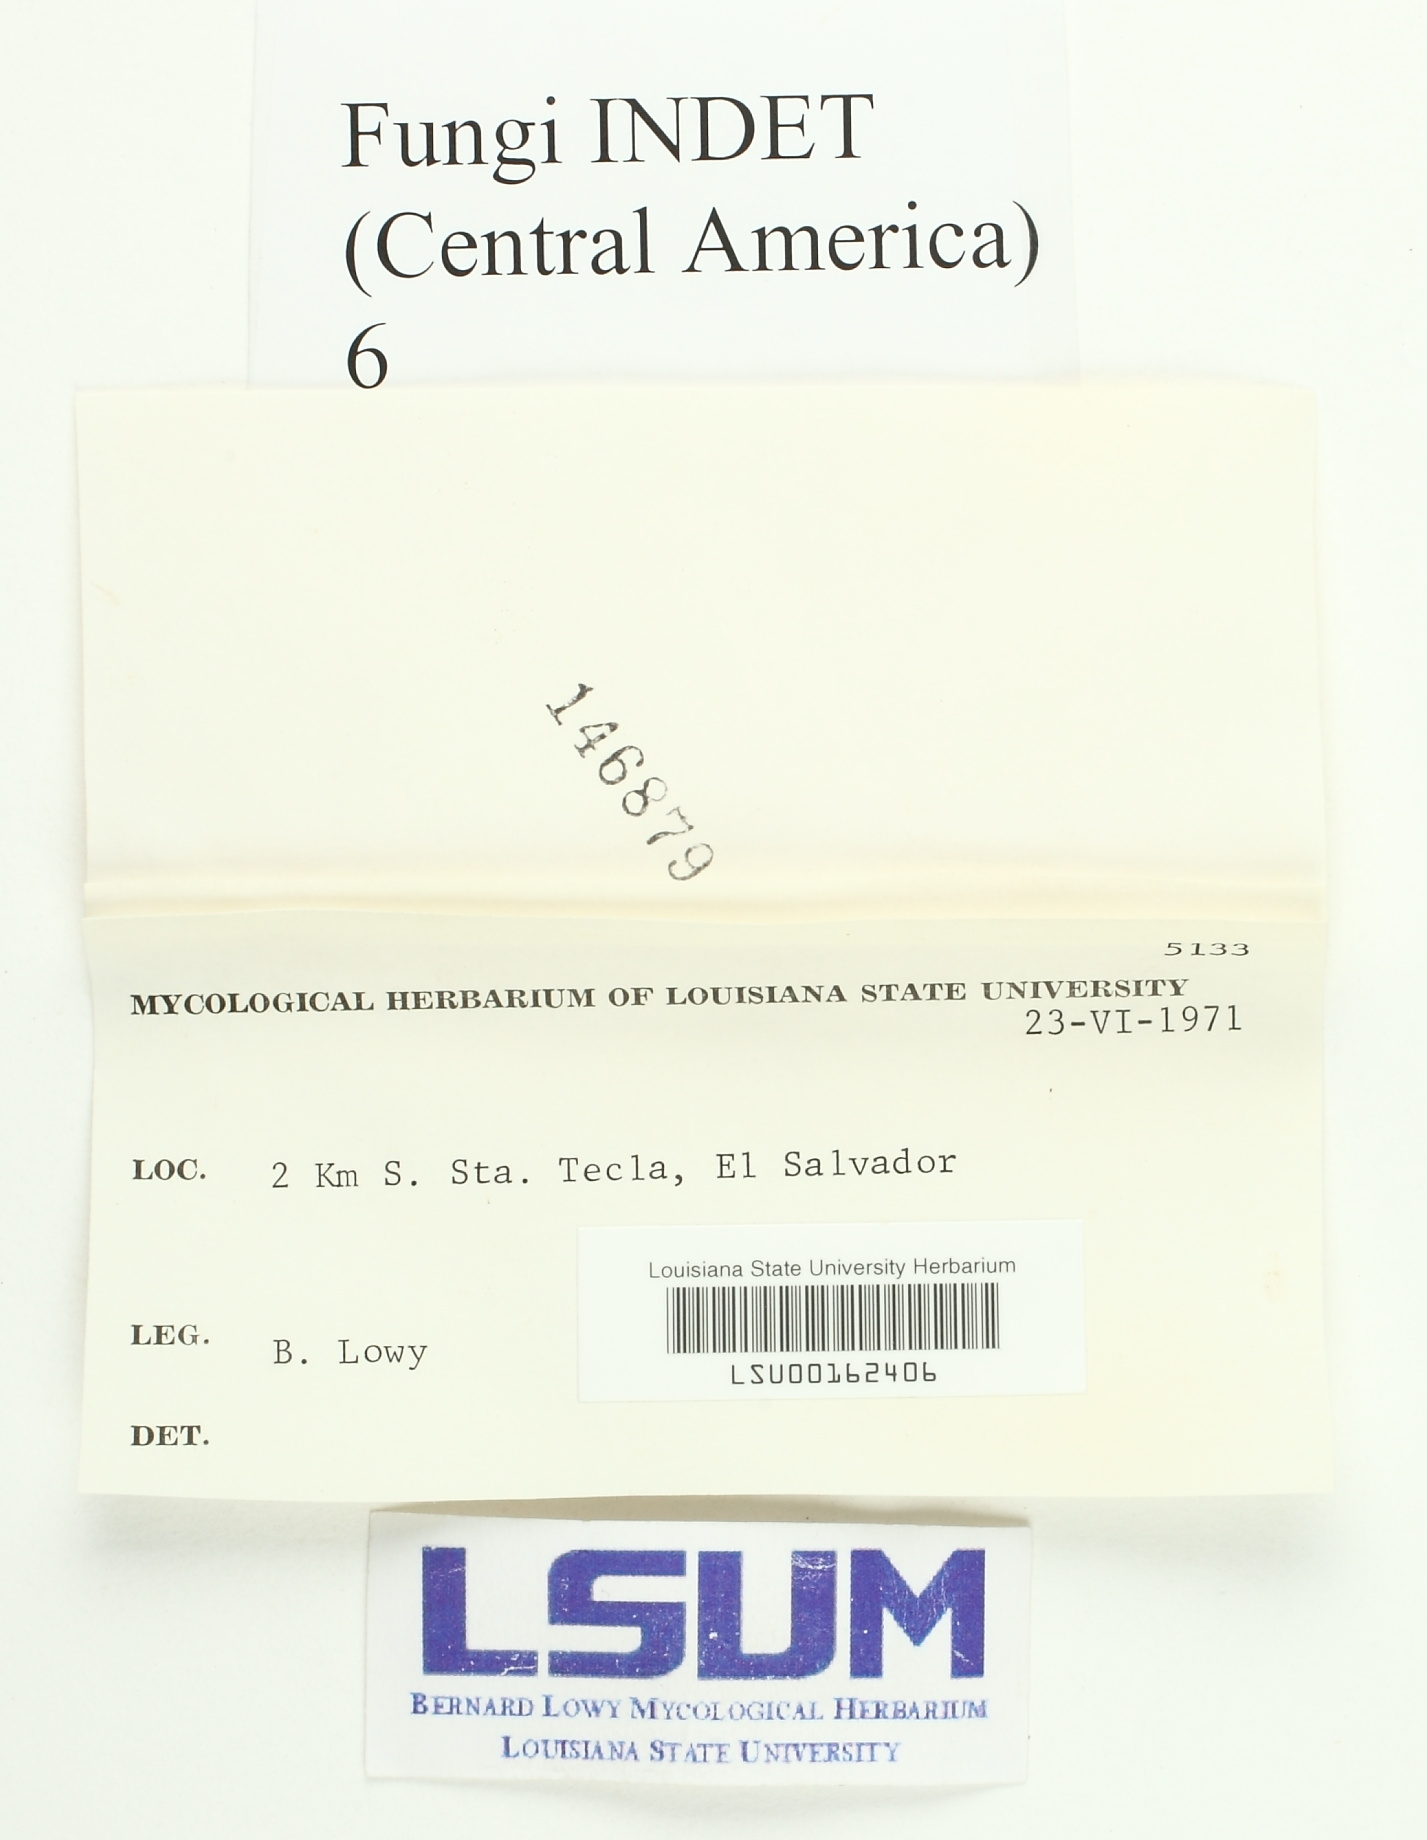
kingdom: Fungi
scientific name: Fungi
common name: Fungi
